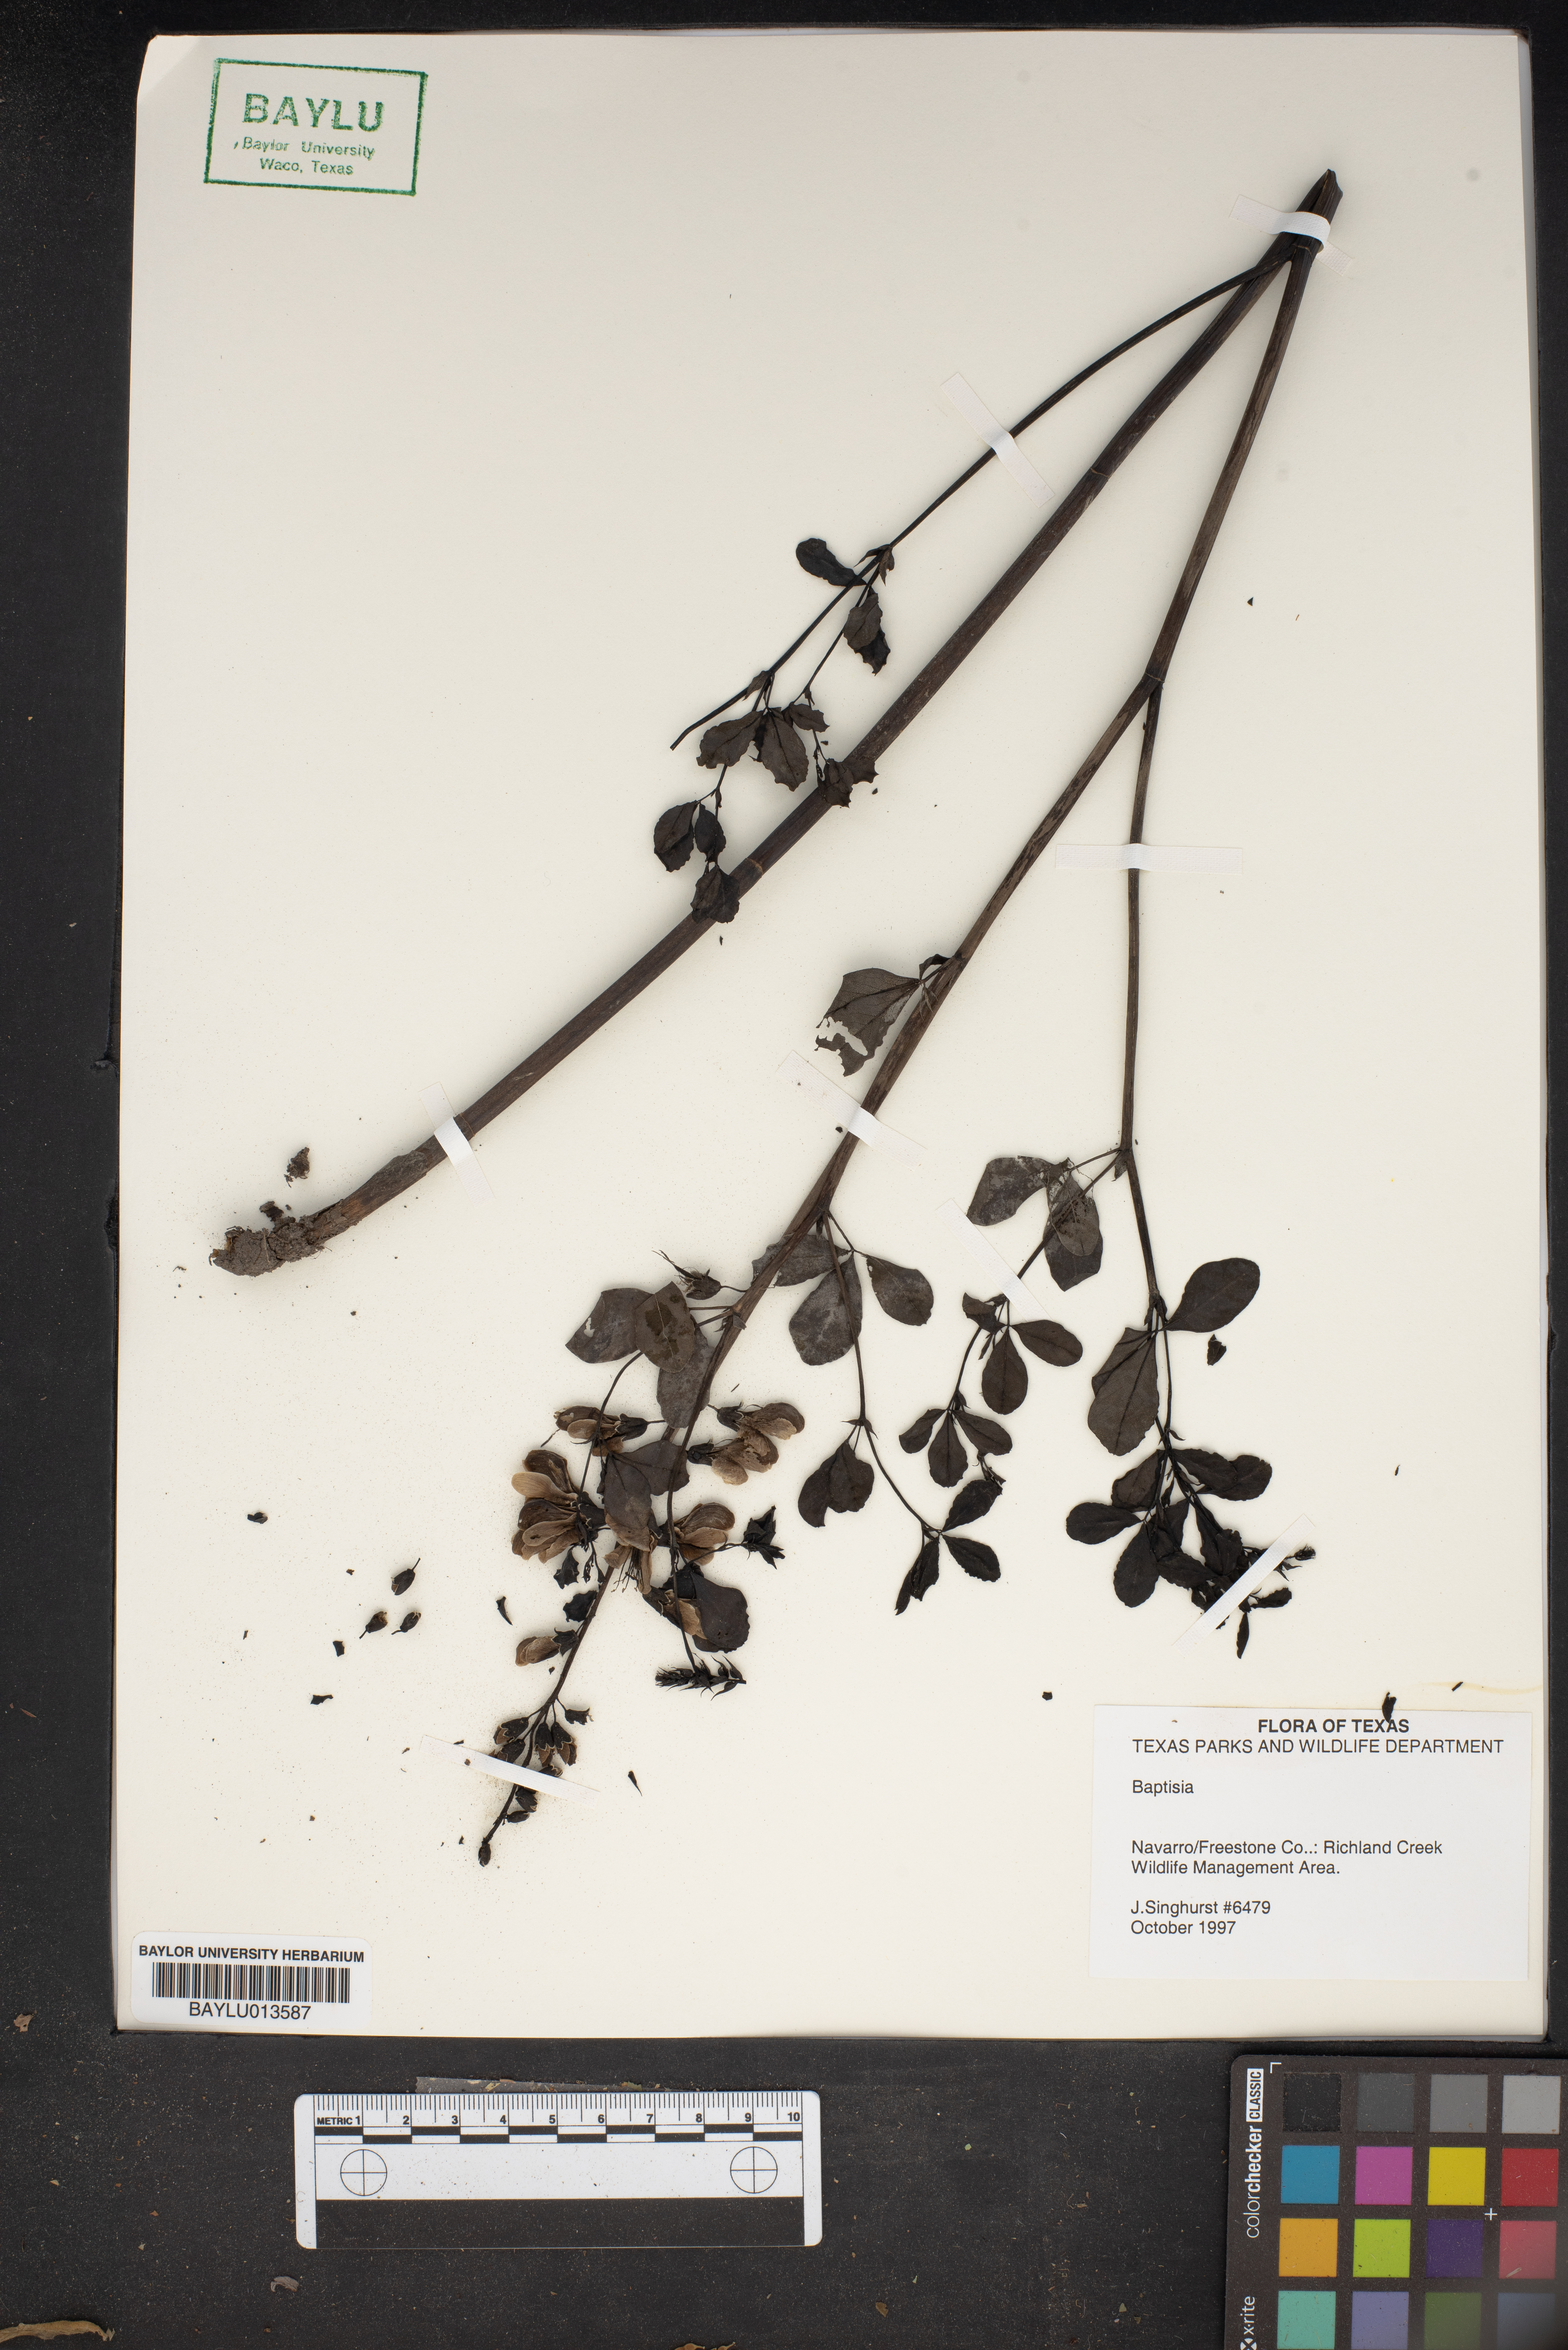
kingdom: Plantae
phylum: Tracheophyta
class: Magnoliopsida
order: Fabales
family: Fabaceae
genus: Baptisia
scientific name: Baptisia
